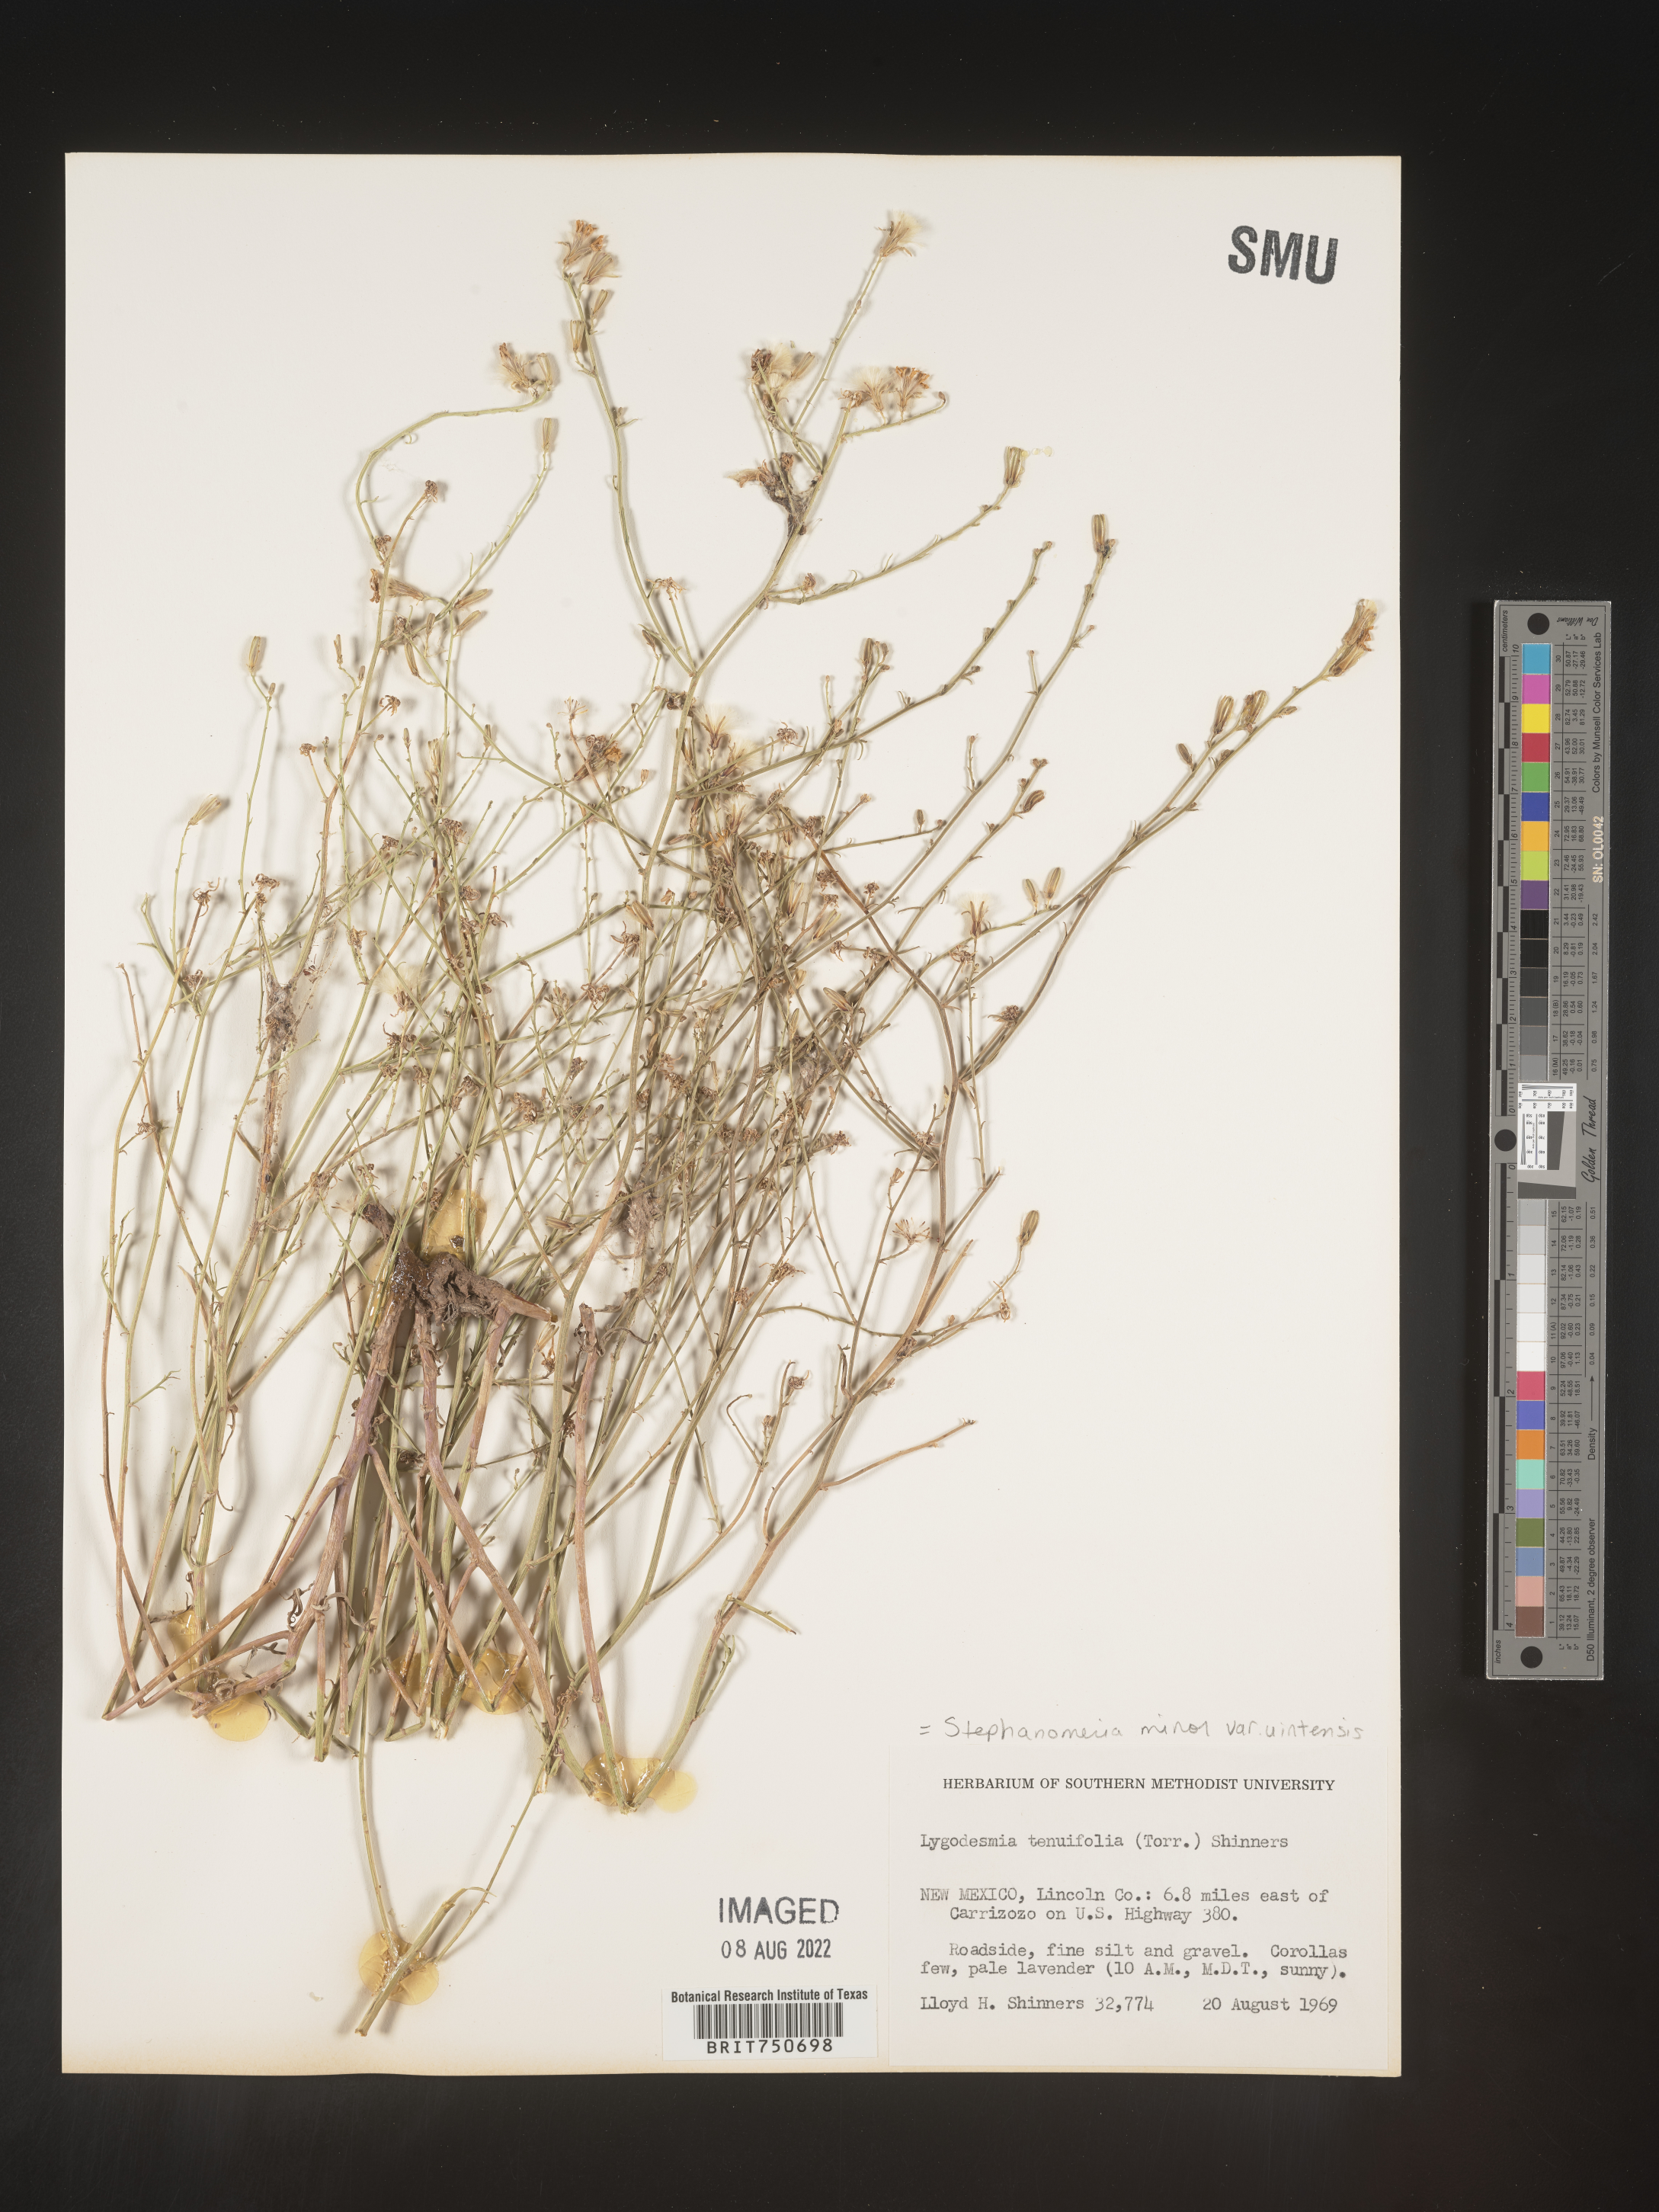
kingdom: Plantae
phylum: Tracheophyta
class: Magnoliopsida
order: Asterales
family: Asteraceae
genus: Stephanomeria
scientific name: Stephanomeria tenuifolia
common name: Slender wirelettuce
